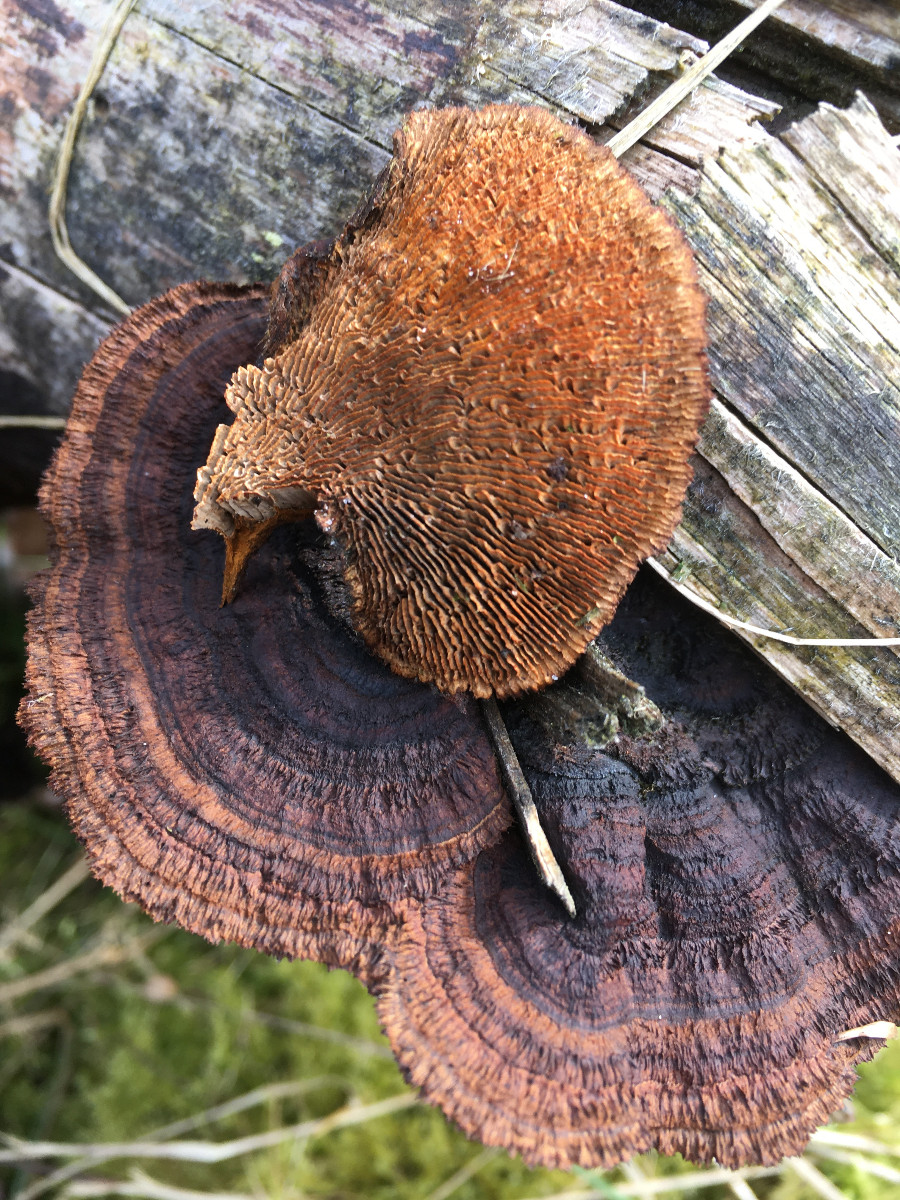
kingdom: Fungi
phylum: Basidiomycota
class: Agaricomycetes
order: Gloeophyllales
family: Gloeophyllaceae
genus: Gloeophyllum
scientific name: Gloeophyllum sepiarium
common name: fyrre-korkhat
